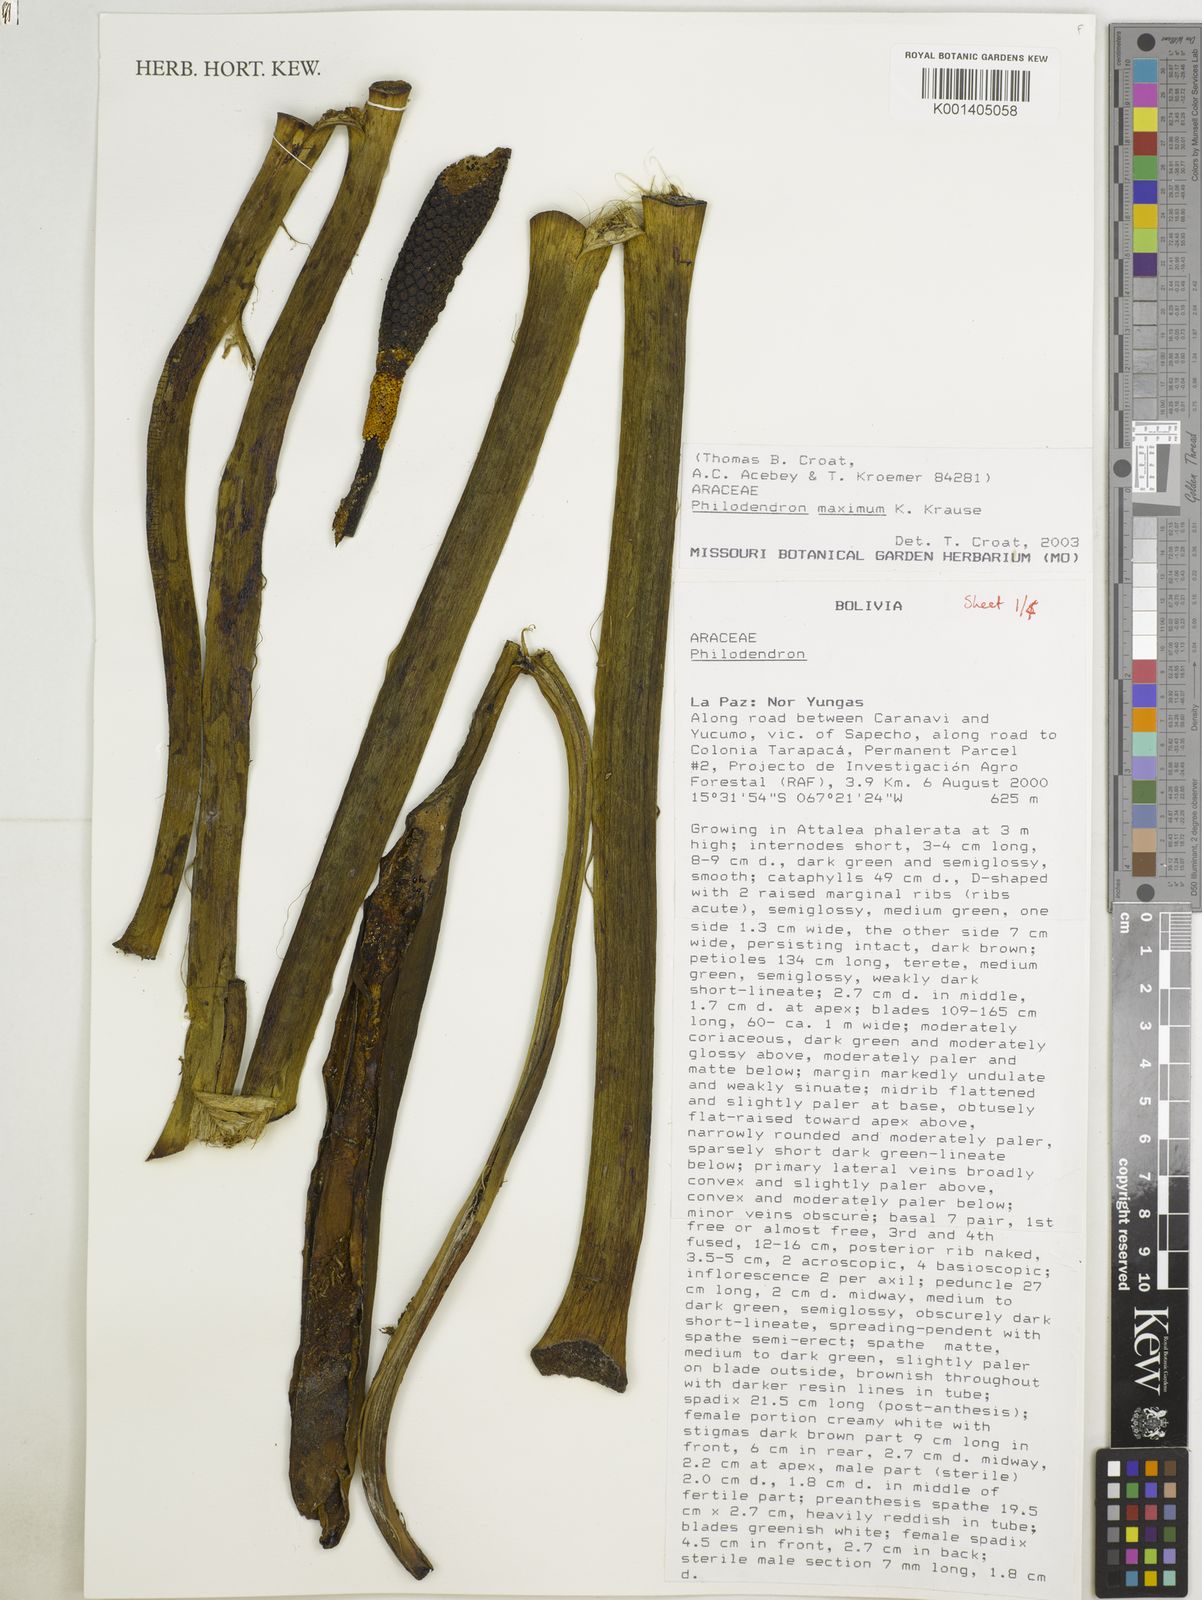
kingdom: Plantae
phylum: Tracheophyta
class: Liliopsida
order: Alismatales
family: Araceae
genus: Philodendron
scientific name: Philodendron maximum
